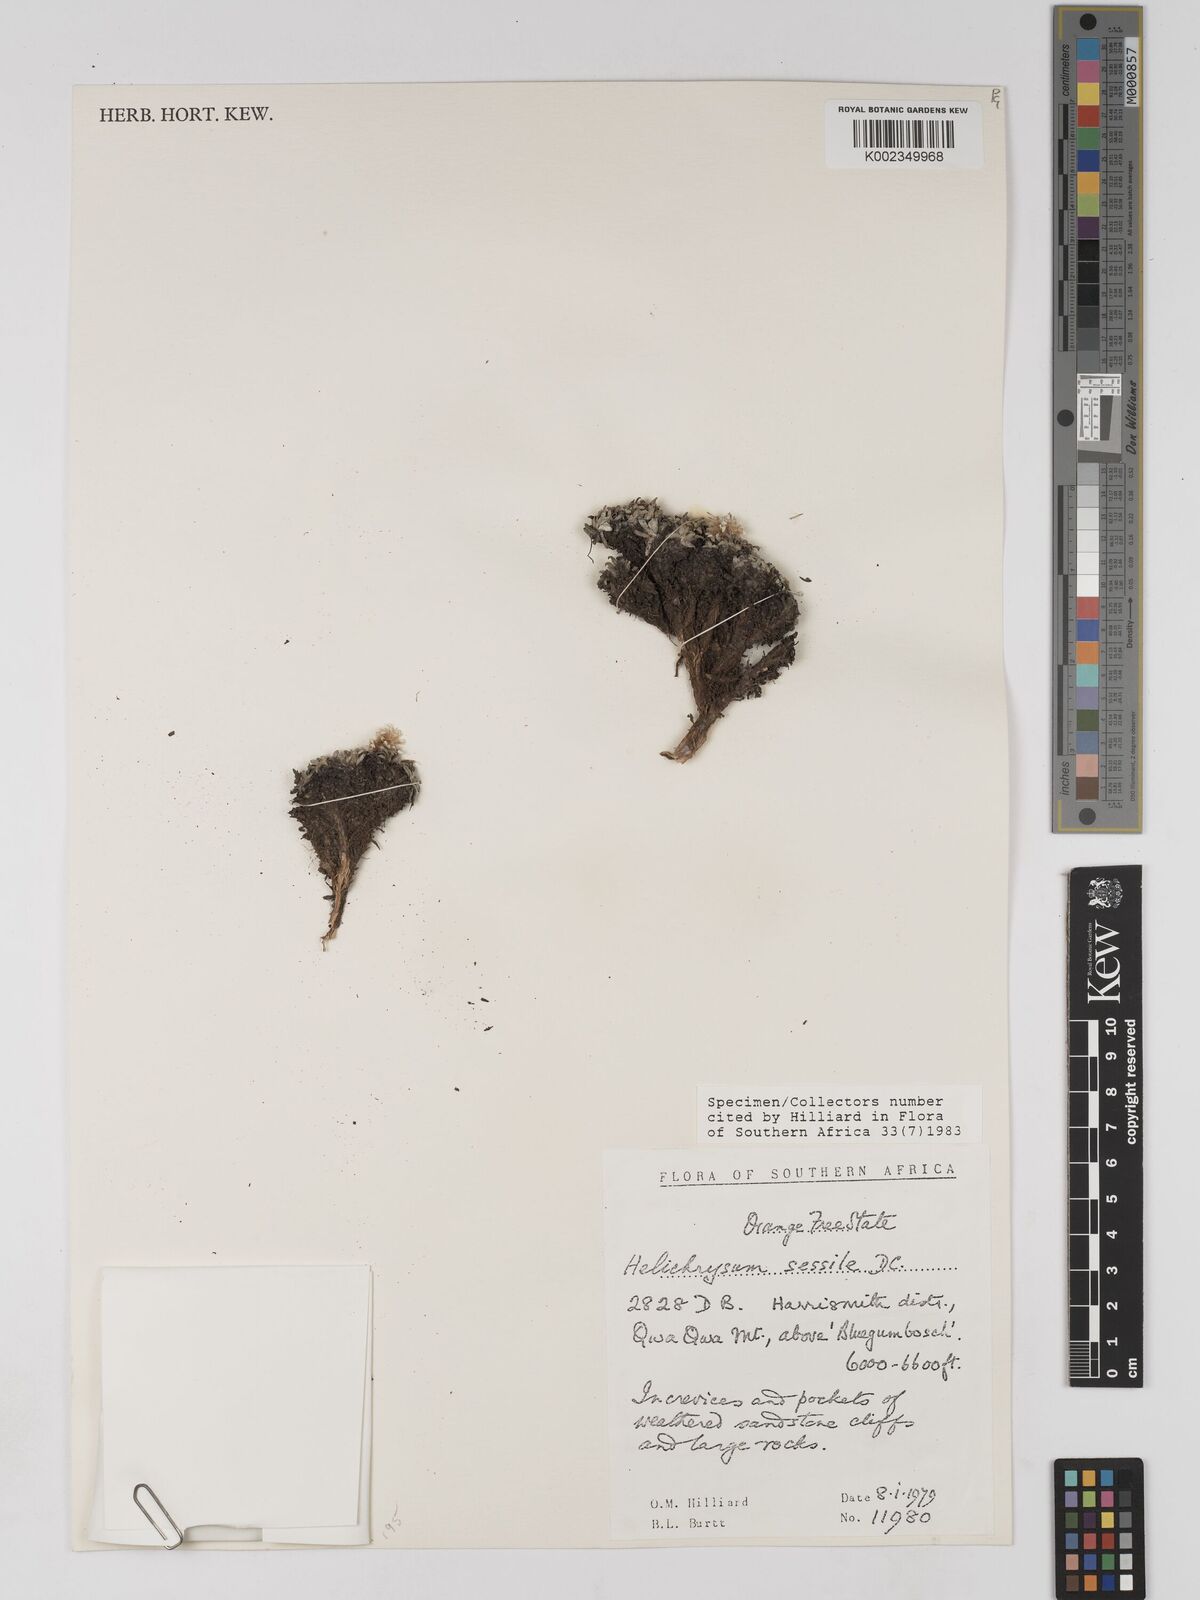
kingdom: Plantae
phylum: Tracheophyta
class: Magnoliopsida
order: Asterales
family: Asteraceae
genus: Helichrysum
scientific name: Helichrysum sessile
